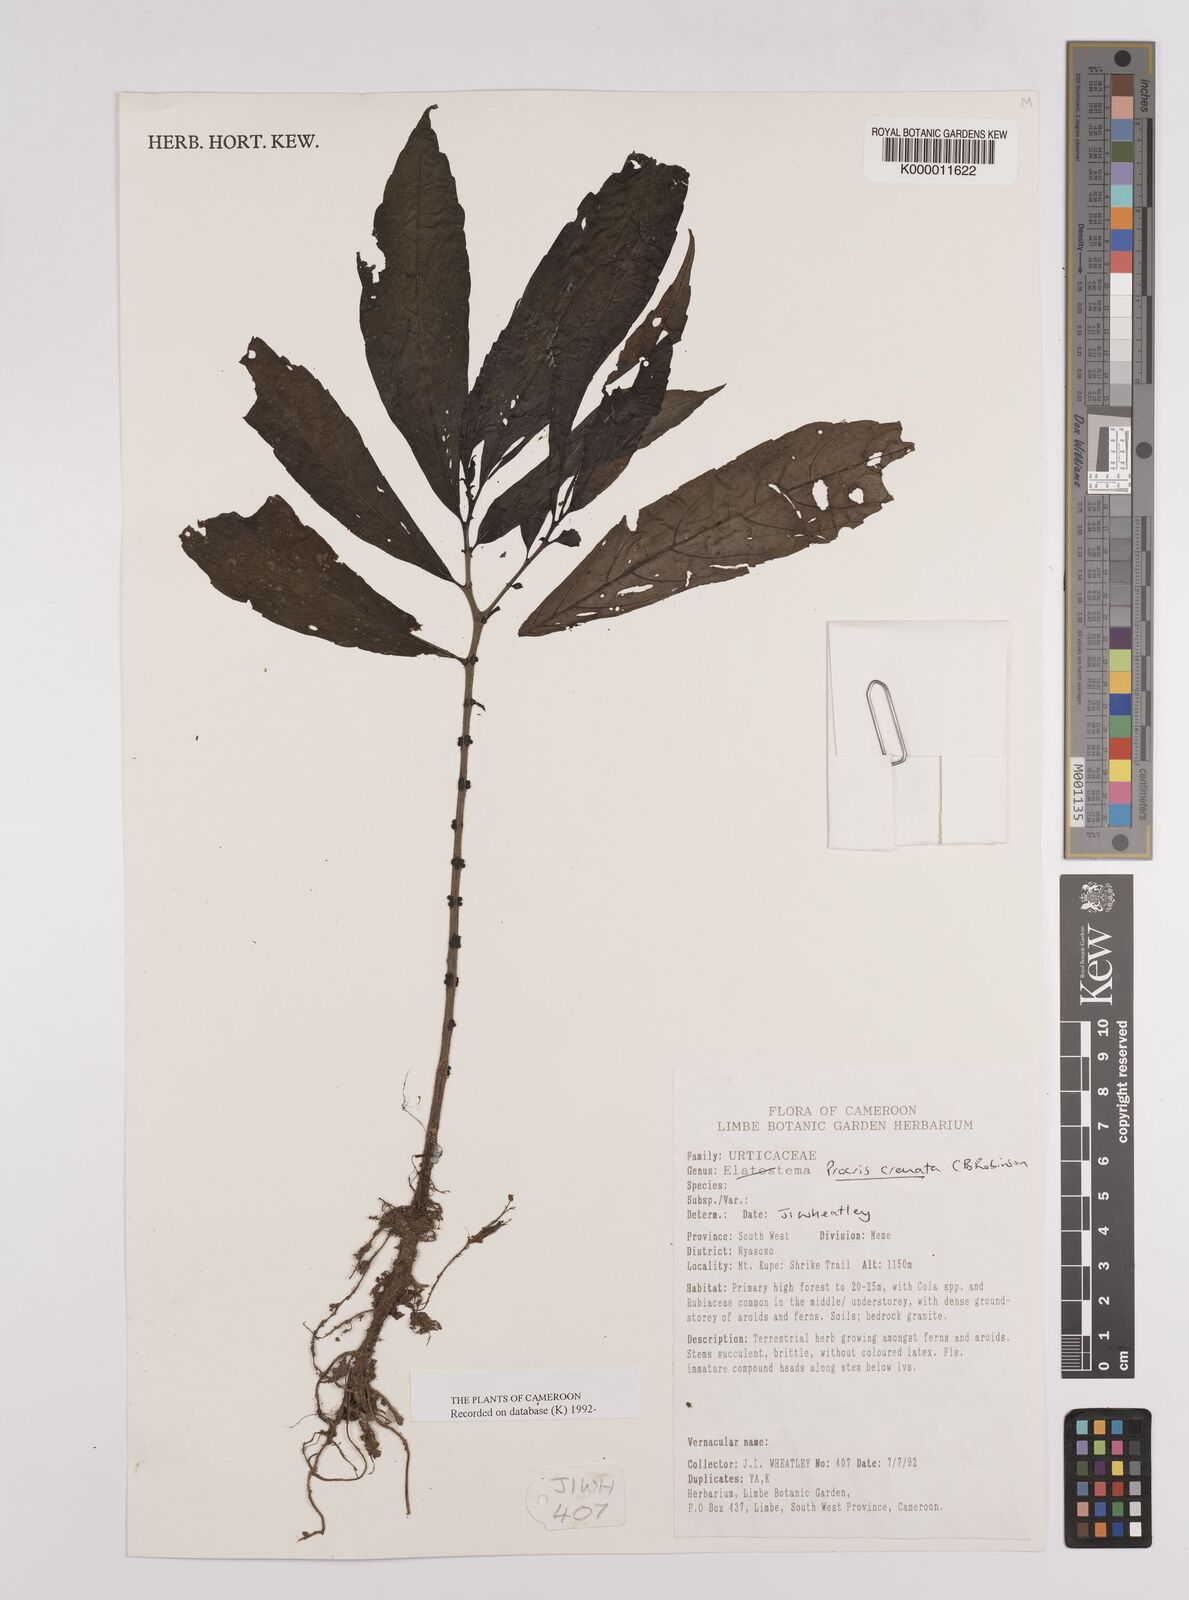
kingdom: Plantae
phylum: Tracheophyta
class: Magnoliopsida
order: Rosales
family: Urticaceae
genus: Procris
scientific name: Procris crenata
